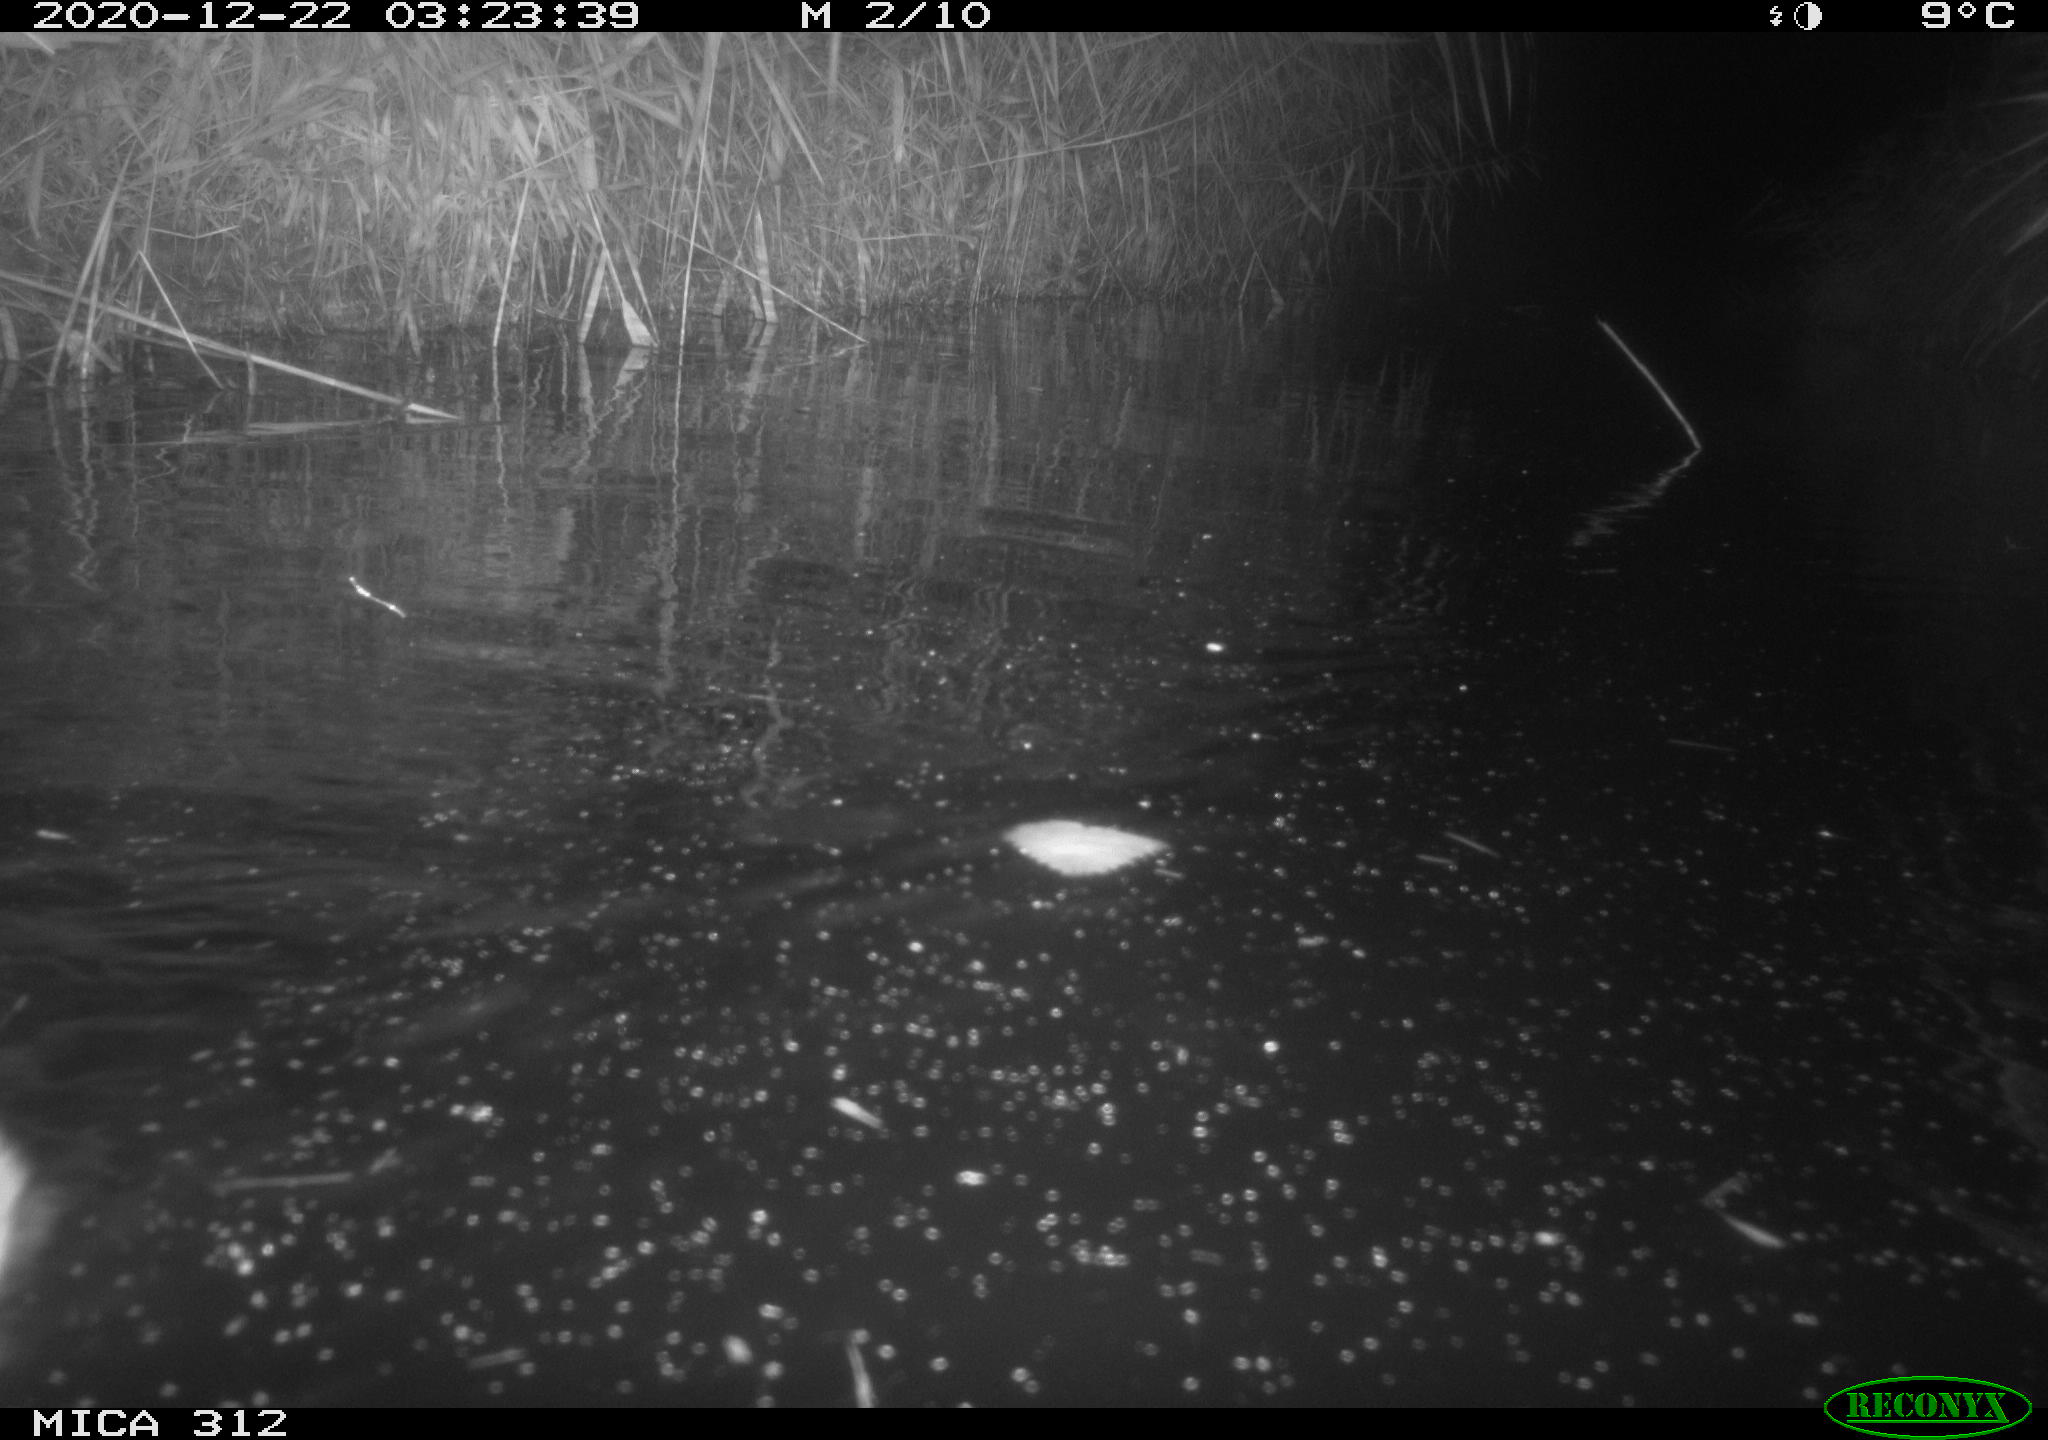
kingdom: Animalia
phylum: Chordata
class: Mammalia
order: Rodentia
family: Muridae
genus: Rattus
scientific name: Rattus norvegicus
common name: Brown rat
